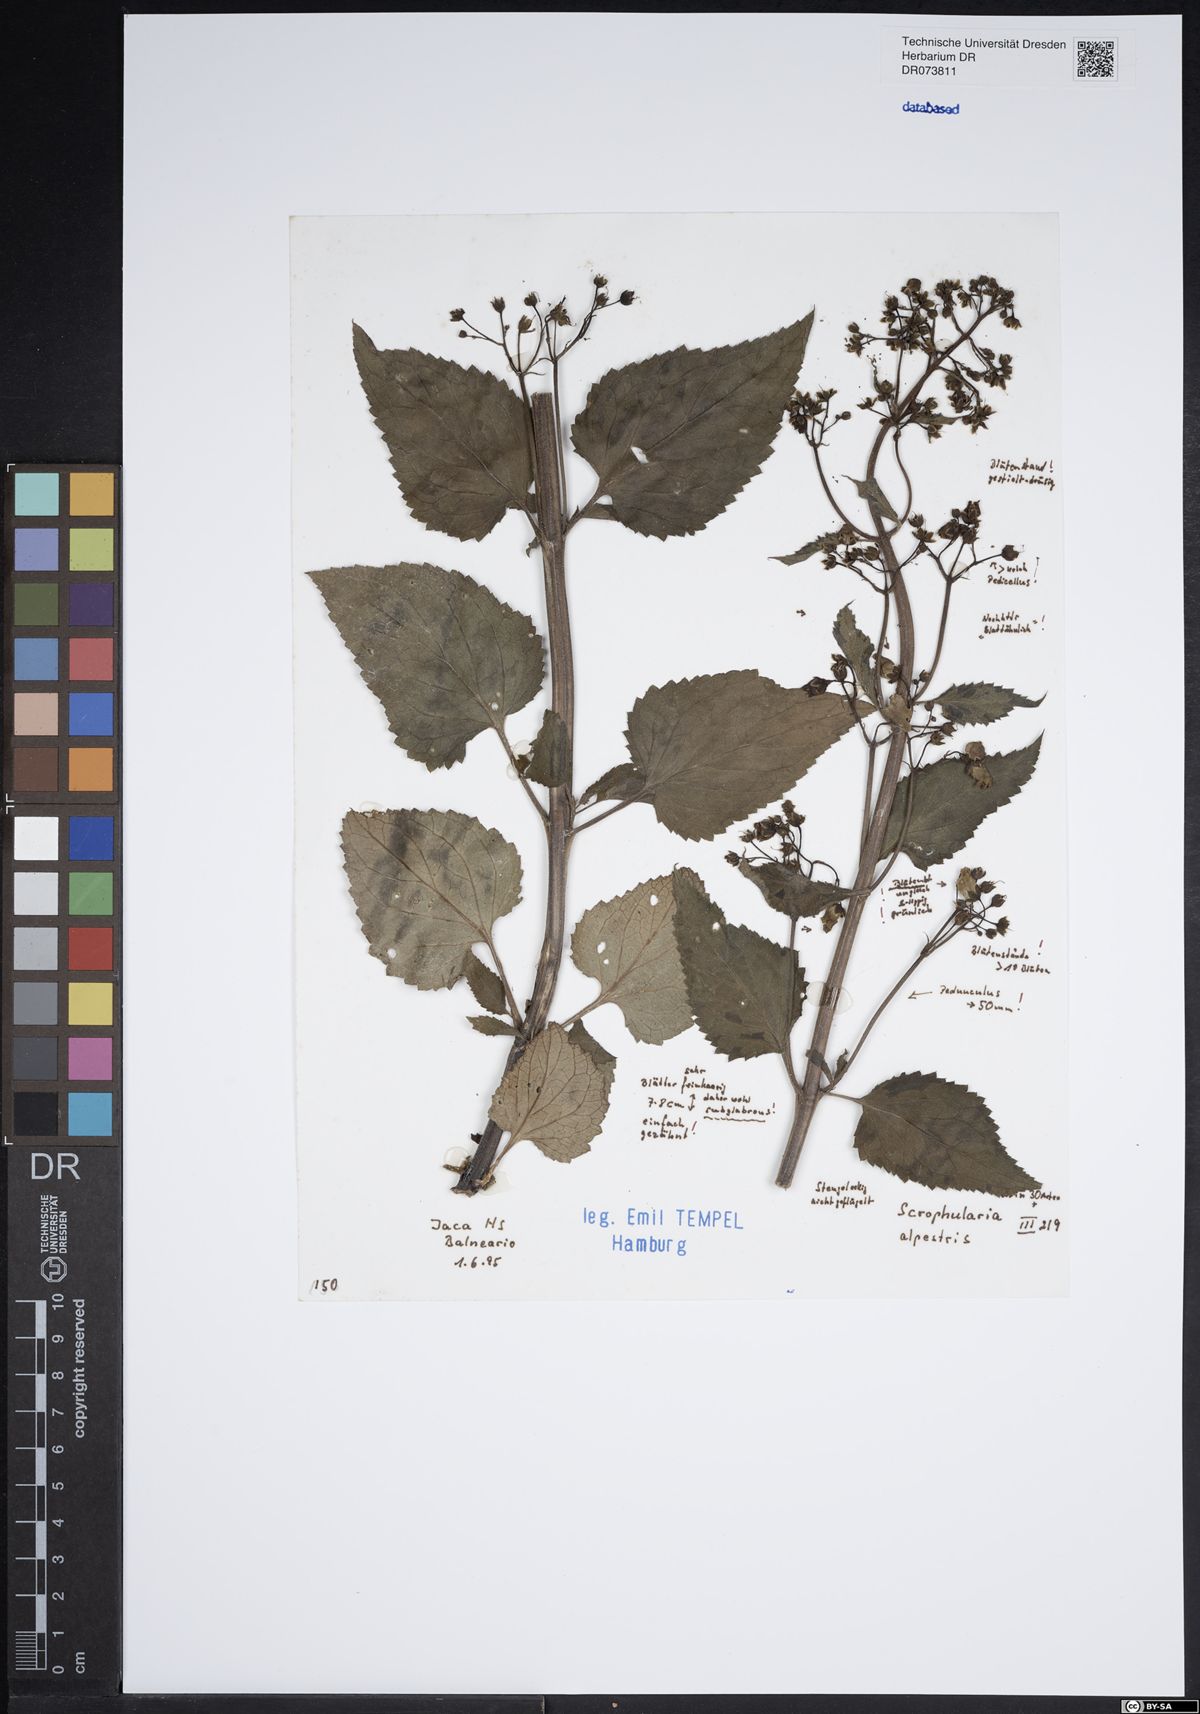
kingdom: Plantae
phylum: Tracheophyta
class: Magnoliopsida
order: Lamiales
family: Scrophulariaceae
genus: Scrophularia
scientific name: Scrophularia alpestris
